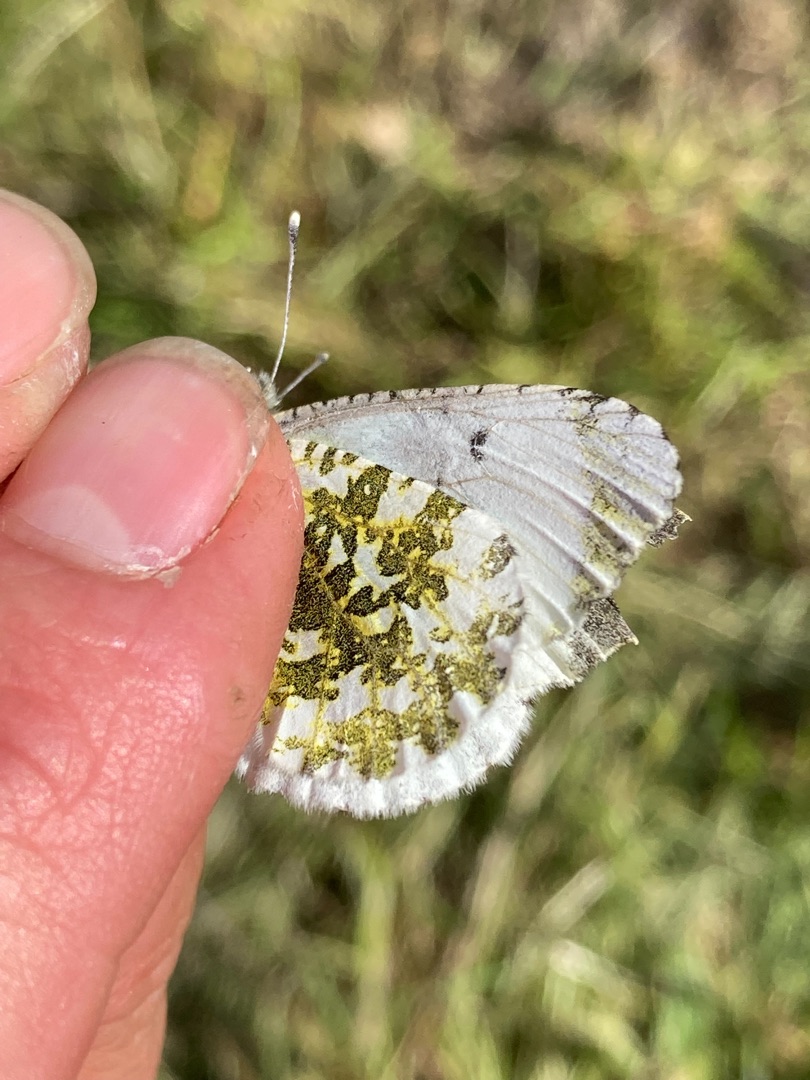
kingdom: Animalia
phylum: Arthropoda
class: Insecta
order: Lepidoptera
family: Pieridae
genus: Anthocharis
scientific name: Anthocharis cardamines
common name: Aurora
